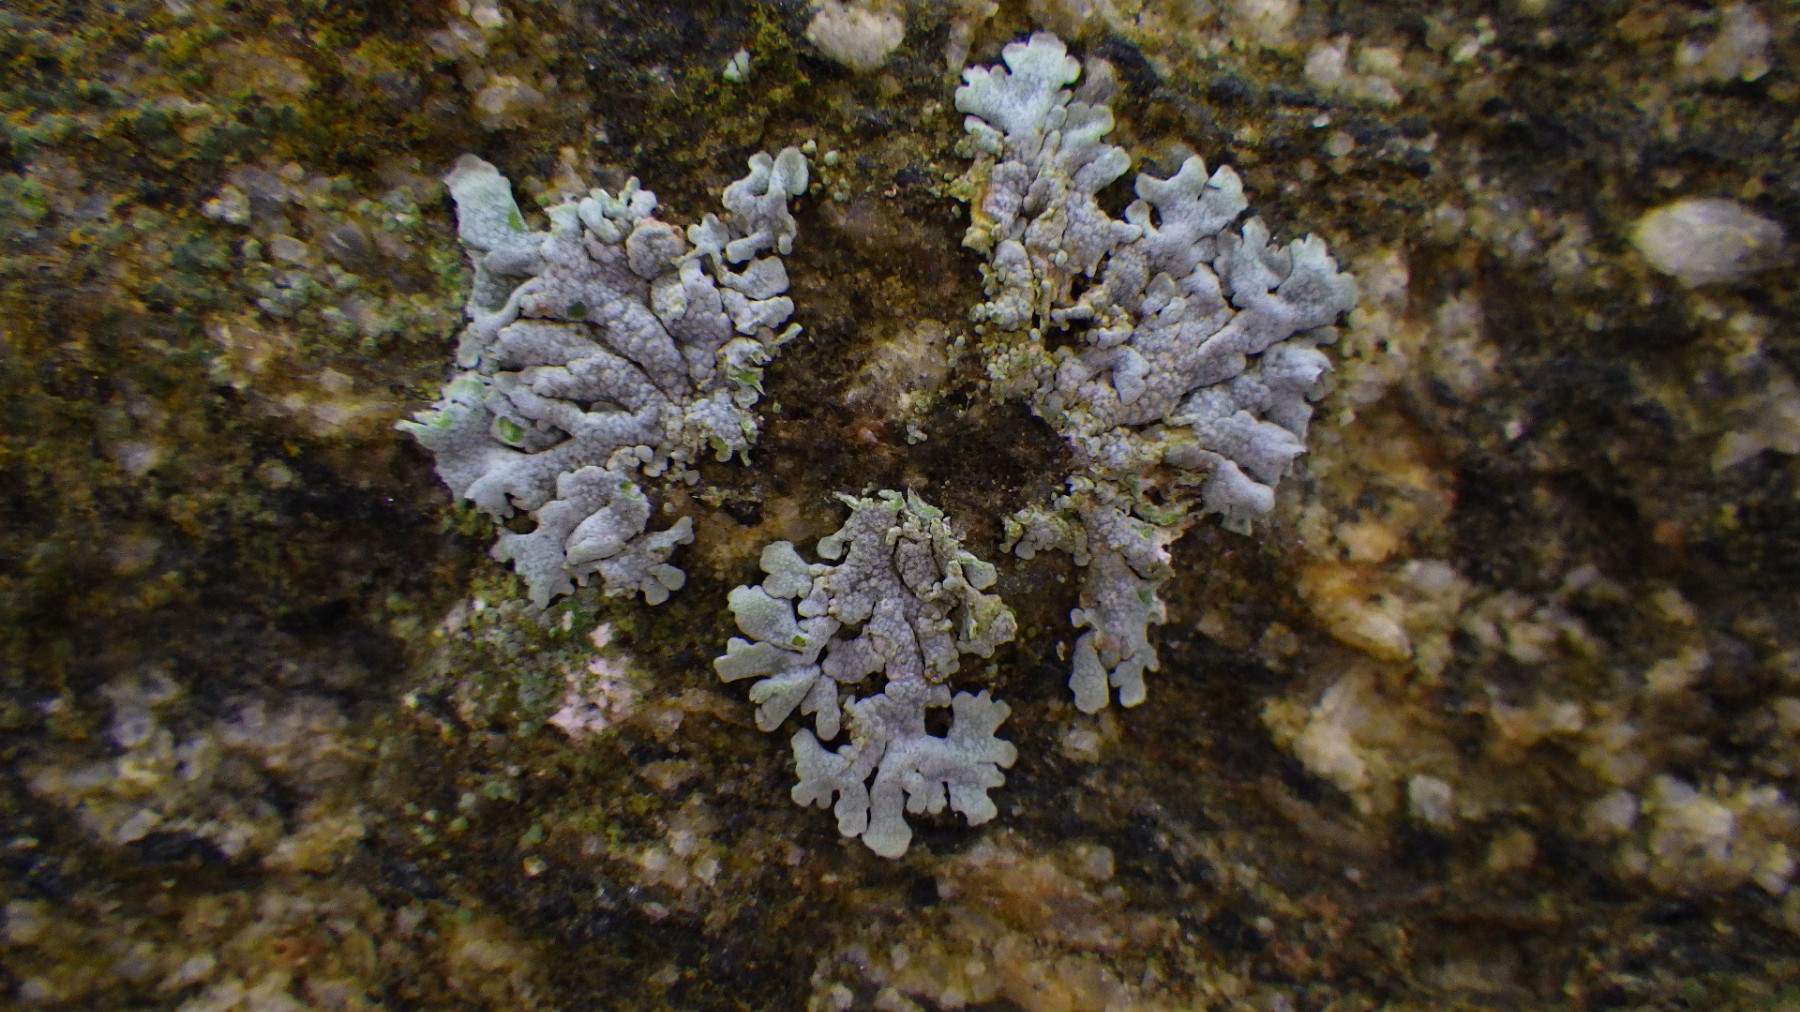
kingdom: Fungi
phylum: Ascomycota
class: Lecanoromycetes
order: Caliciales
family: Physciaceae
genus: Physcia
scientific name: Physcia caesia
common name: blågrå rosetlav
